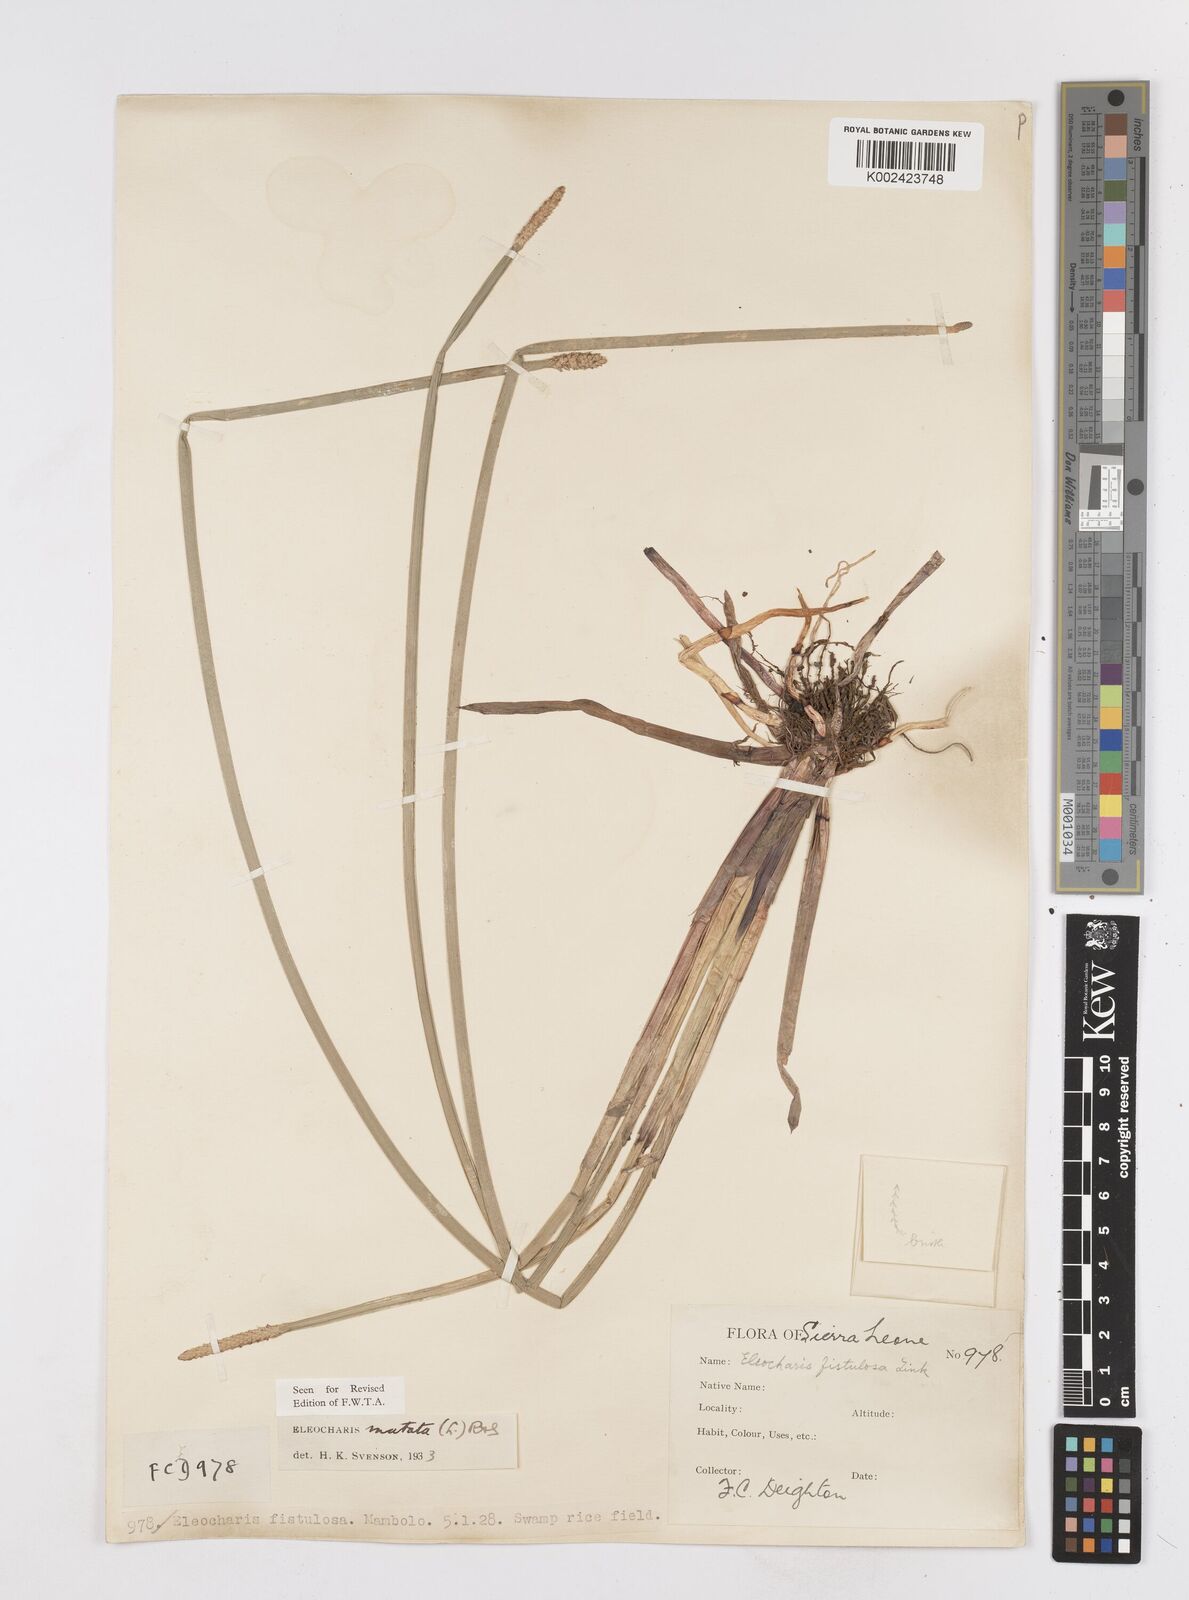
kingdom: Plantae
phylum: Tracheophyta
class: Liliopsida
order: Poales
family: Cyperaceae
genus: Eleocharis
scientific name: Eleocharis mutata
